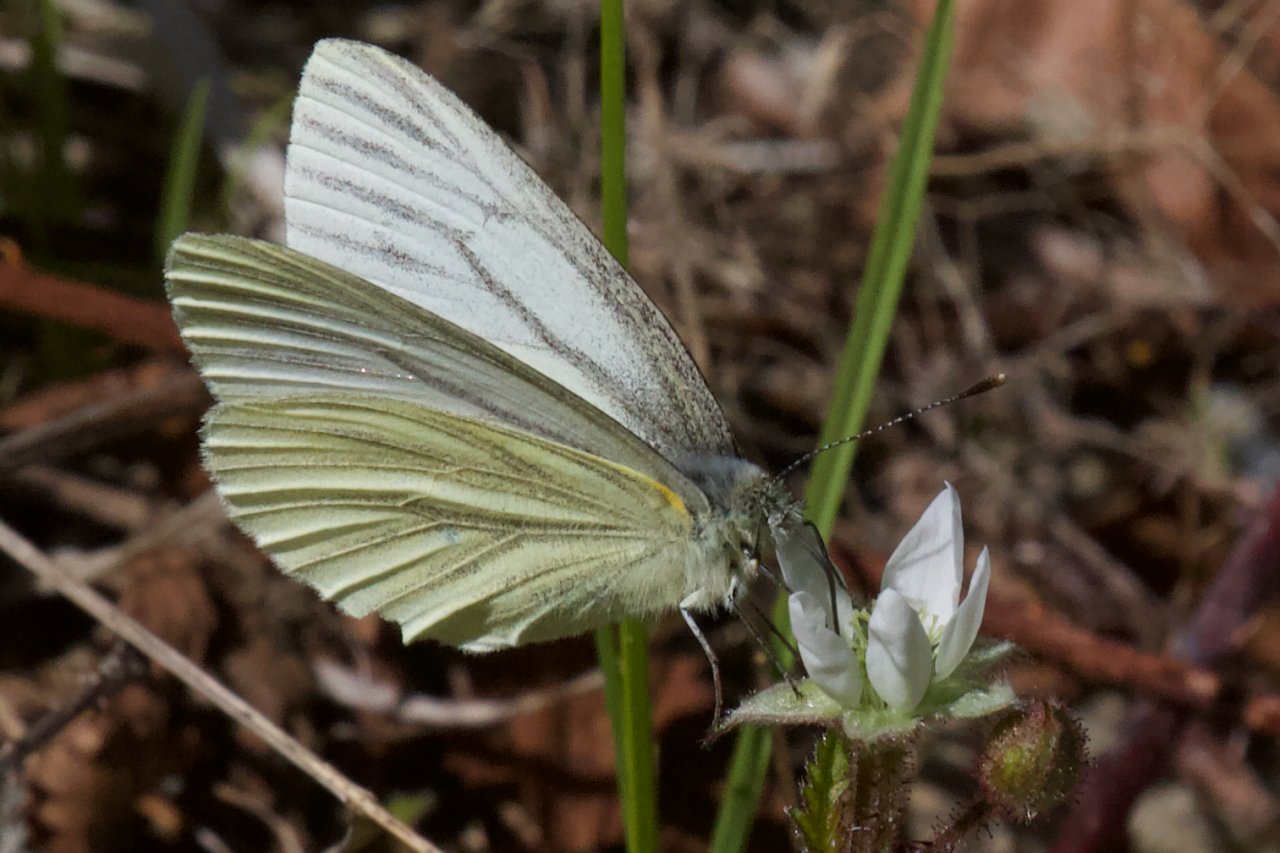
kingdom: Animalia
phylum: Arthropoda
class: Insecta
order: Lepidoptera
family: Pieridae
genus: Pieris
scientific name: Pieris marginalis
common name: Margined White
